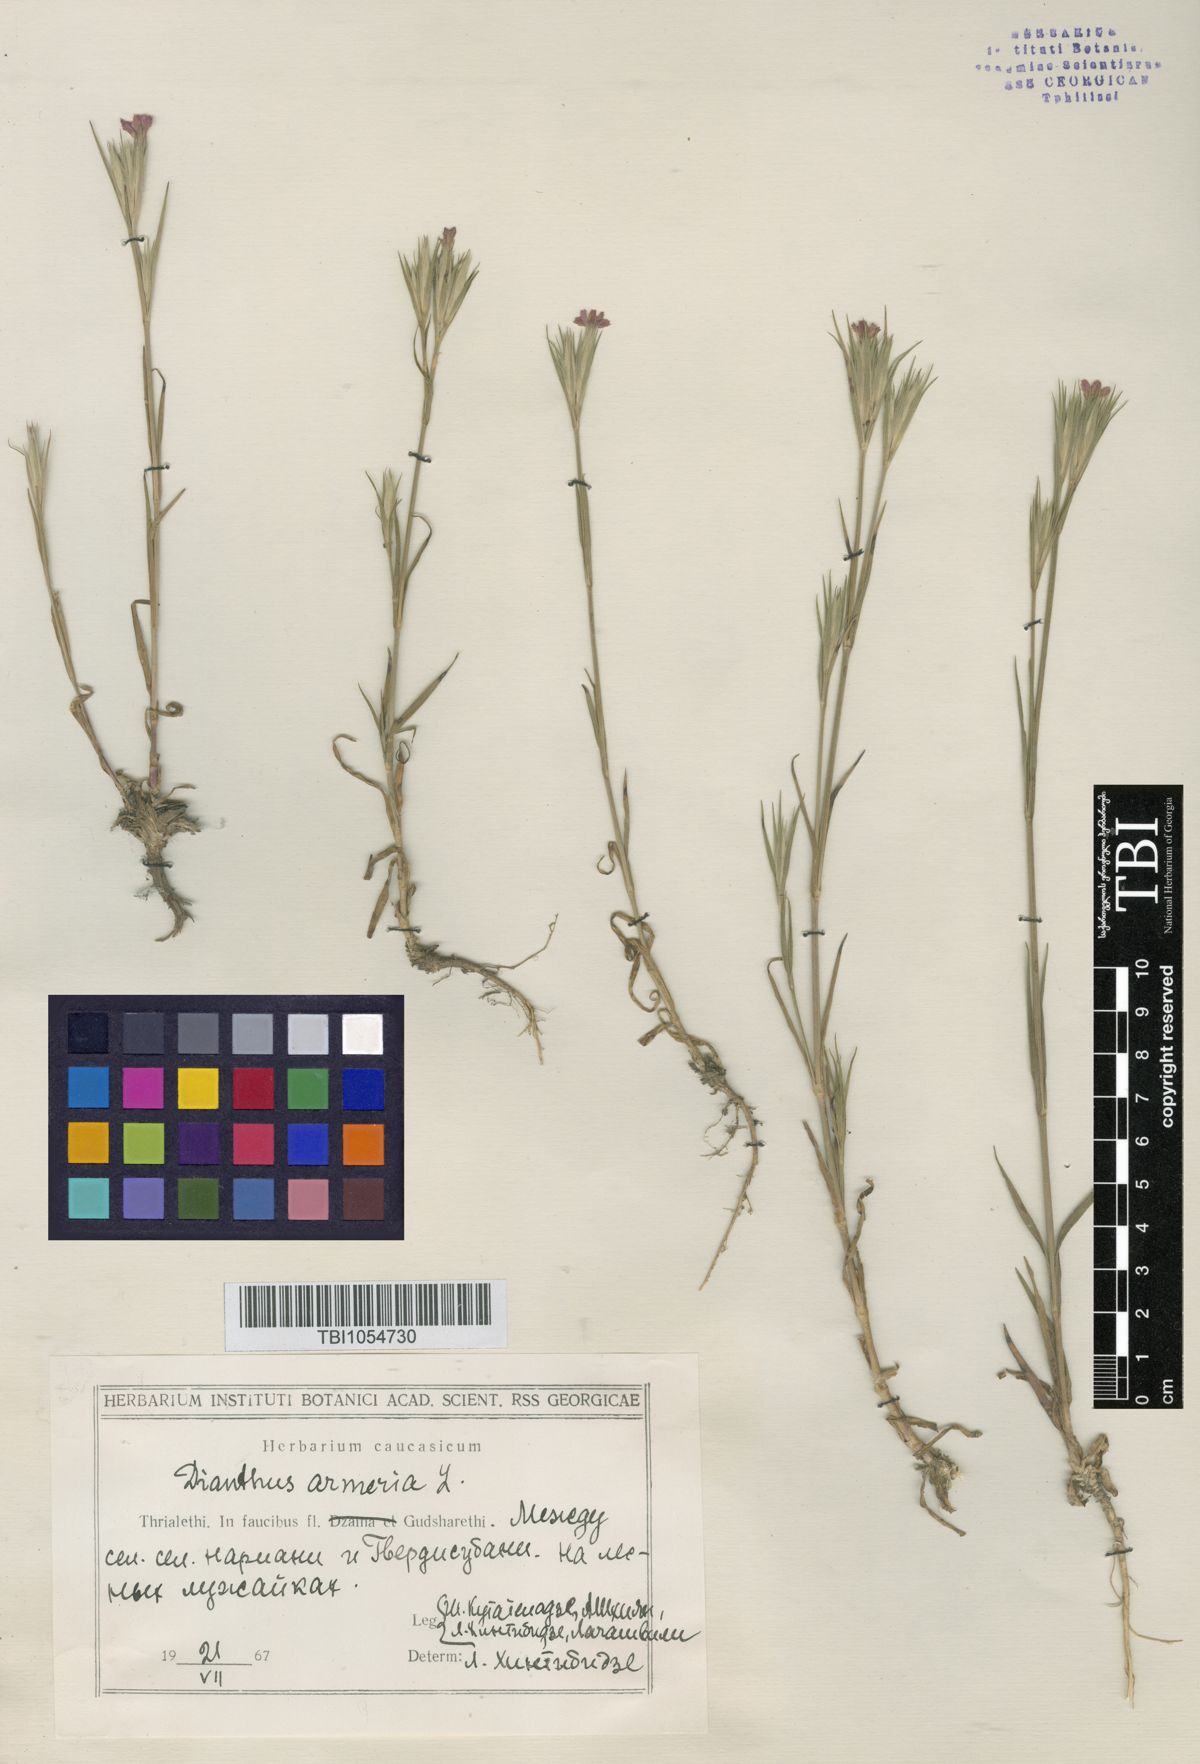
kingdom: Plantae
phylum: Tracheophyta
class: Magnoliopsida
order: Caryophyllales
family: Caryophyllaceae
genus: Dianthus
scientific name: Dianthus armeria
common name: Deptford pink
